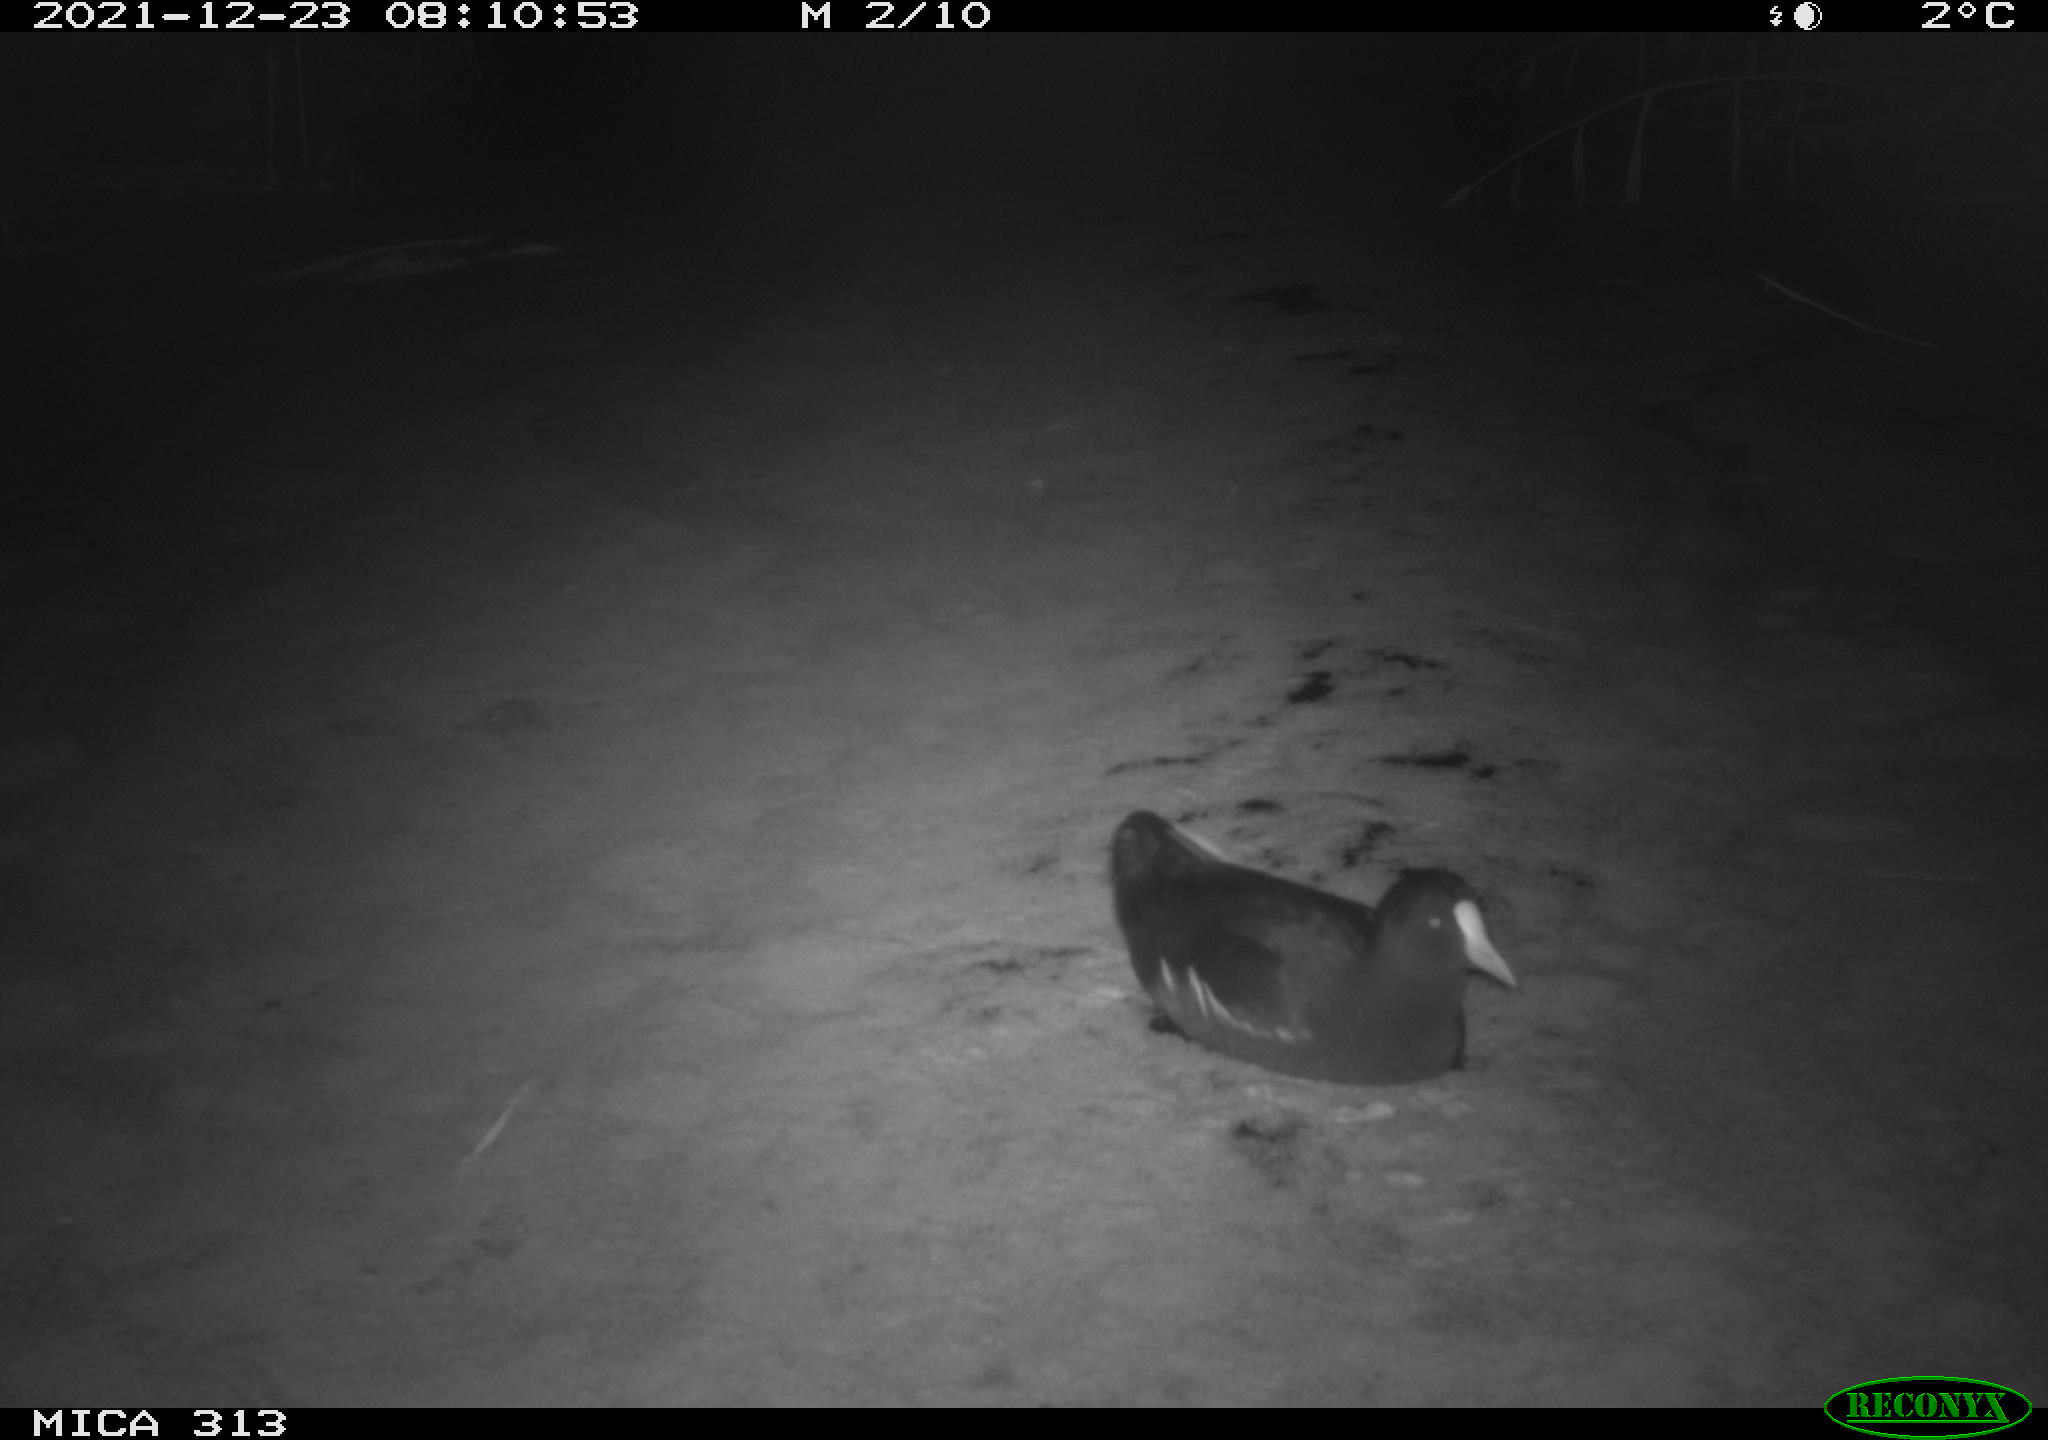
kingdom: Animalia
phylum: Chordata
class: Aves
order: Gruiformes
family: Rallidae
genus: Gallinula
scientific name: Gallinula chloropus
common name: Common moorhen
